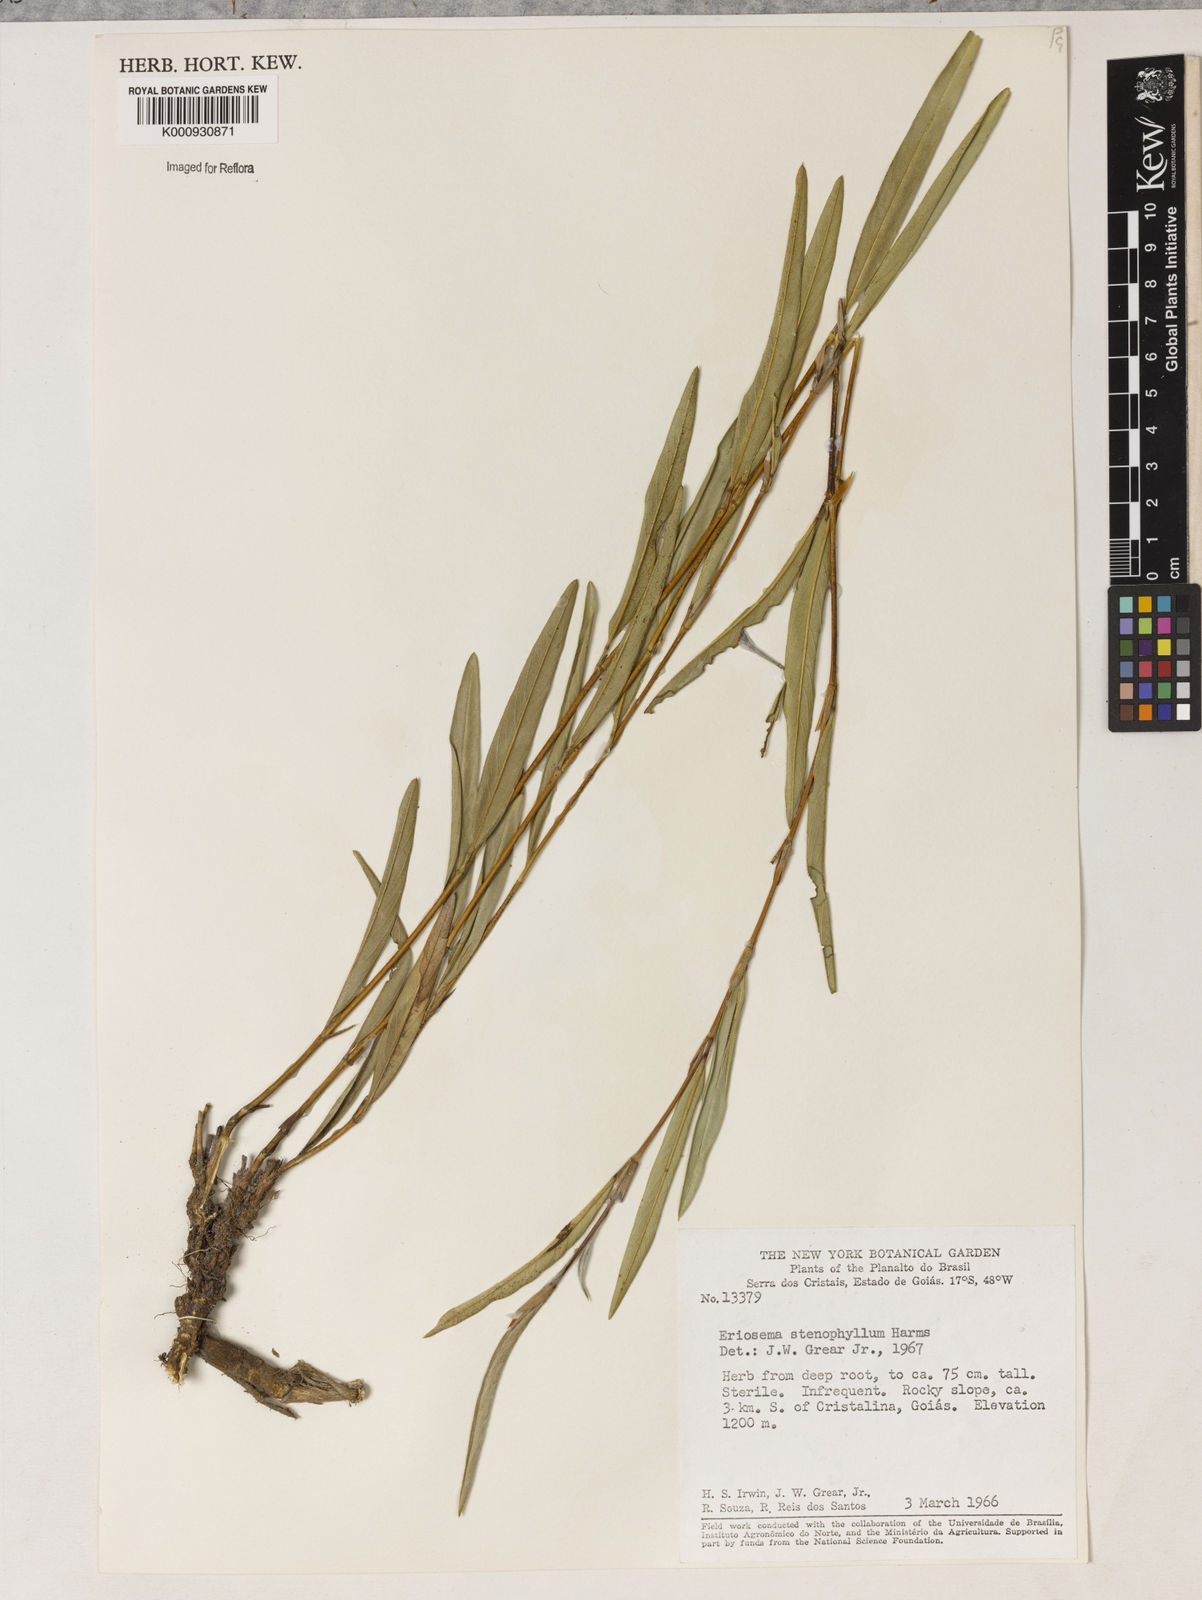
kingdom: Plantae
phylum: Tracheophyta
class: Magnoliopsida
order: Fabales
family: Fabaceae
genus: Eriosema
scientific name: Eriosema stenophyllum
